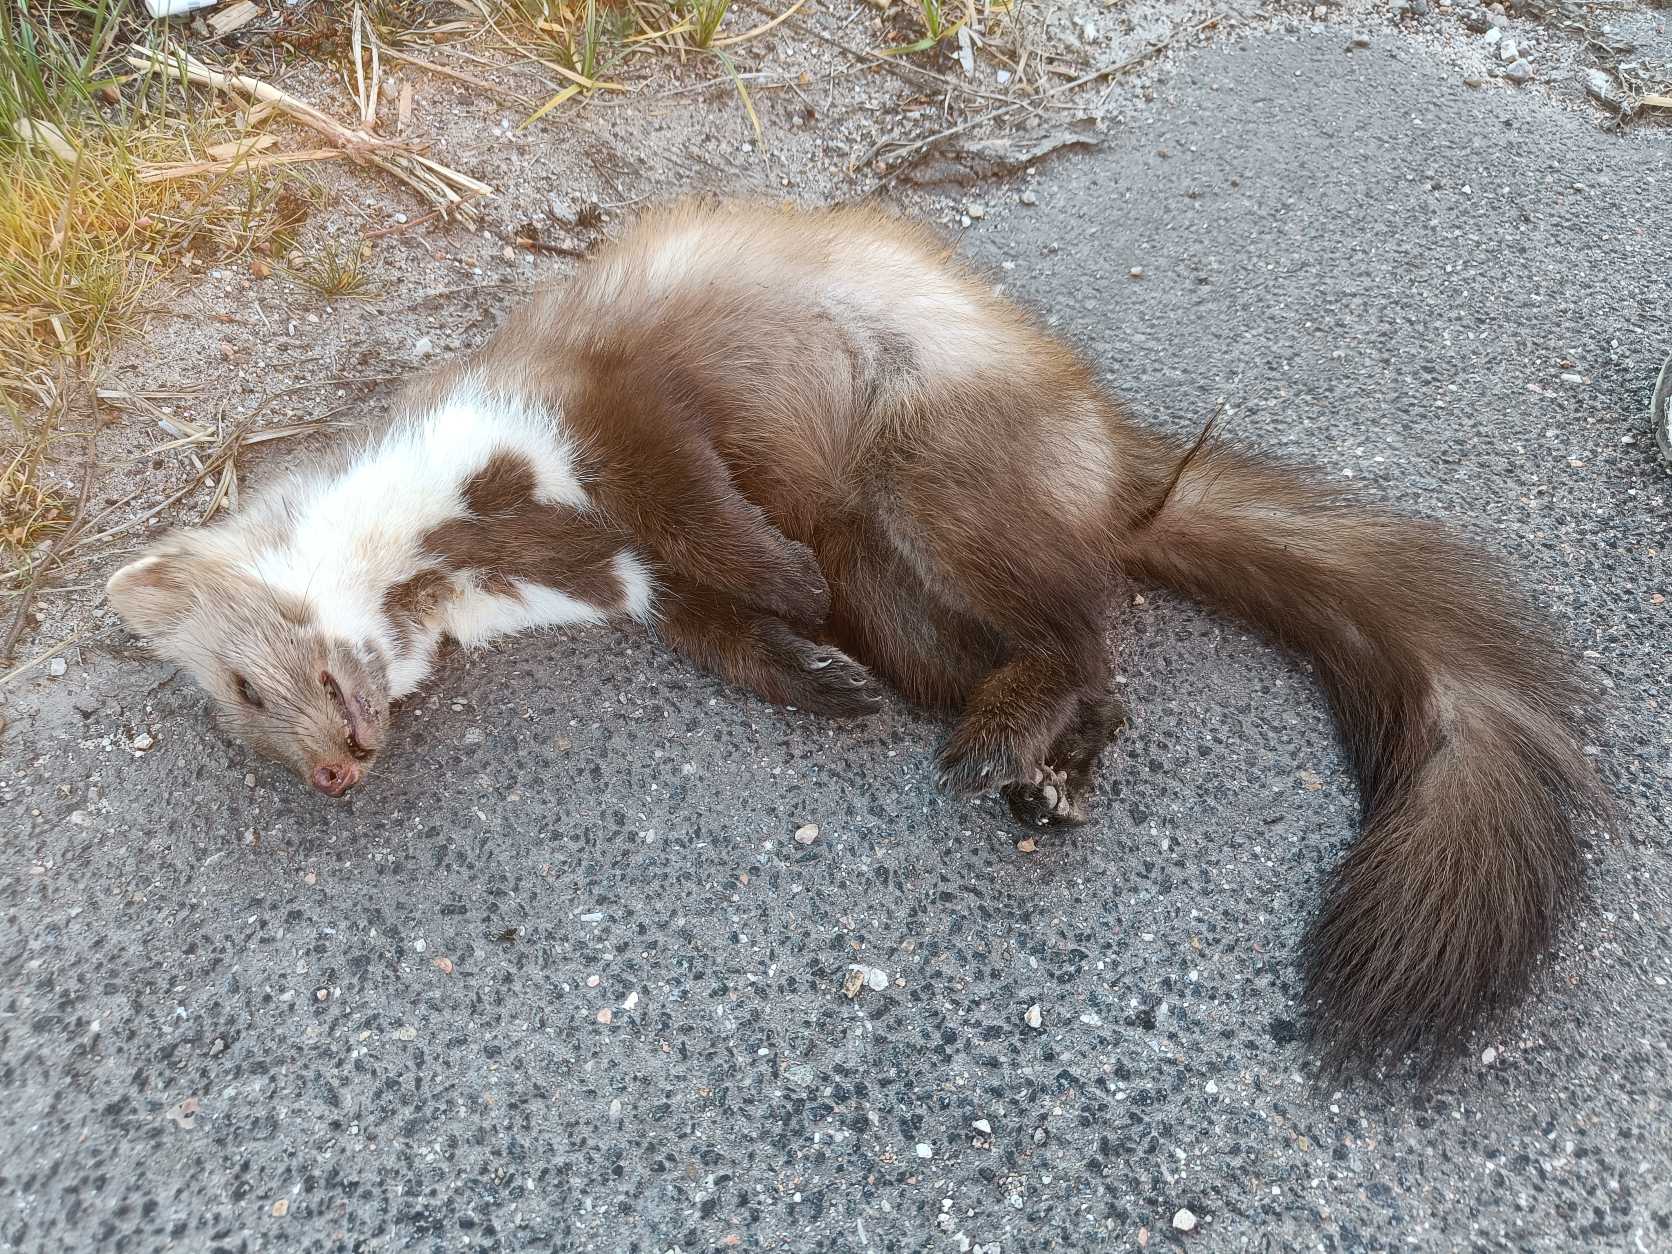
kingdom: Animalia
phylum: Chordata
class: Mammalia
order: Carnivora
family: Mustelidae
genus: Martes
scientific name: Martes foina
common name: Husmår
